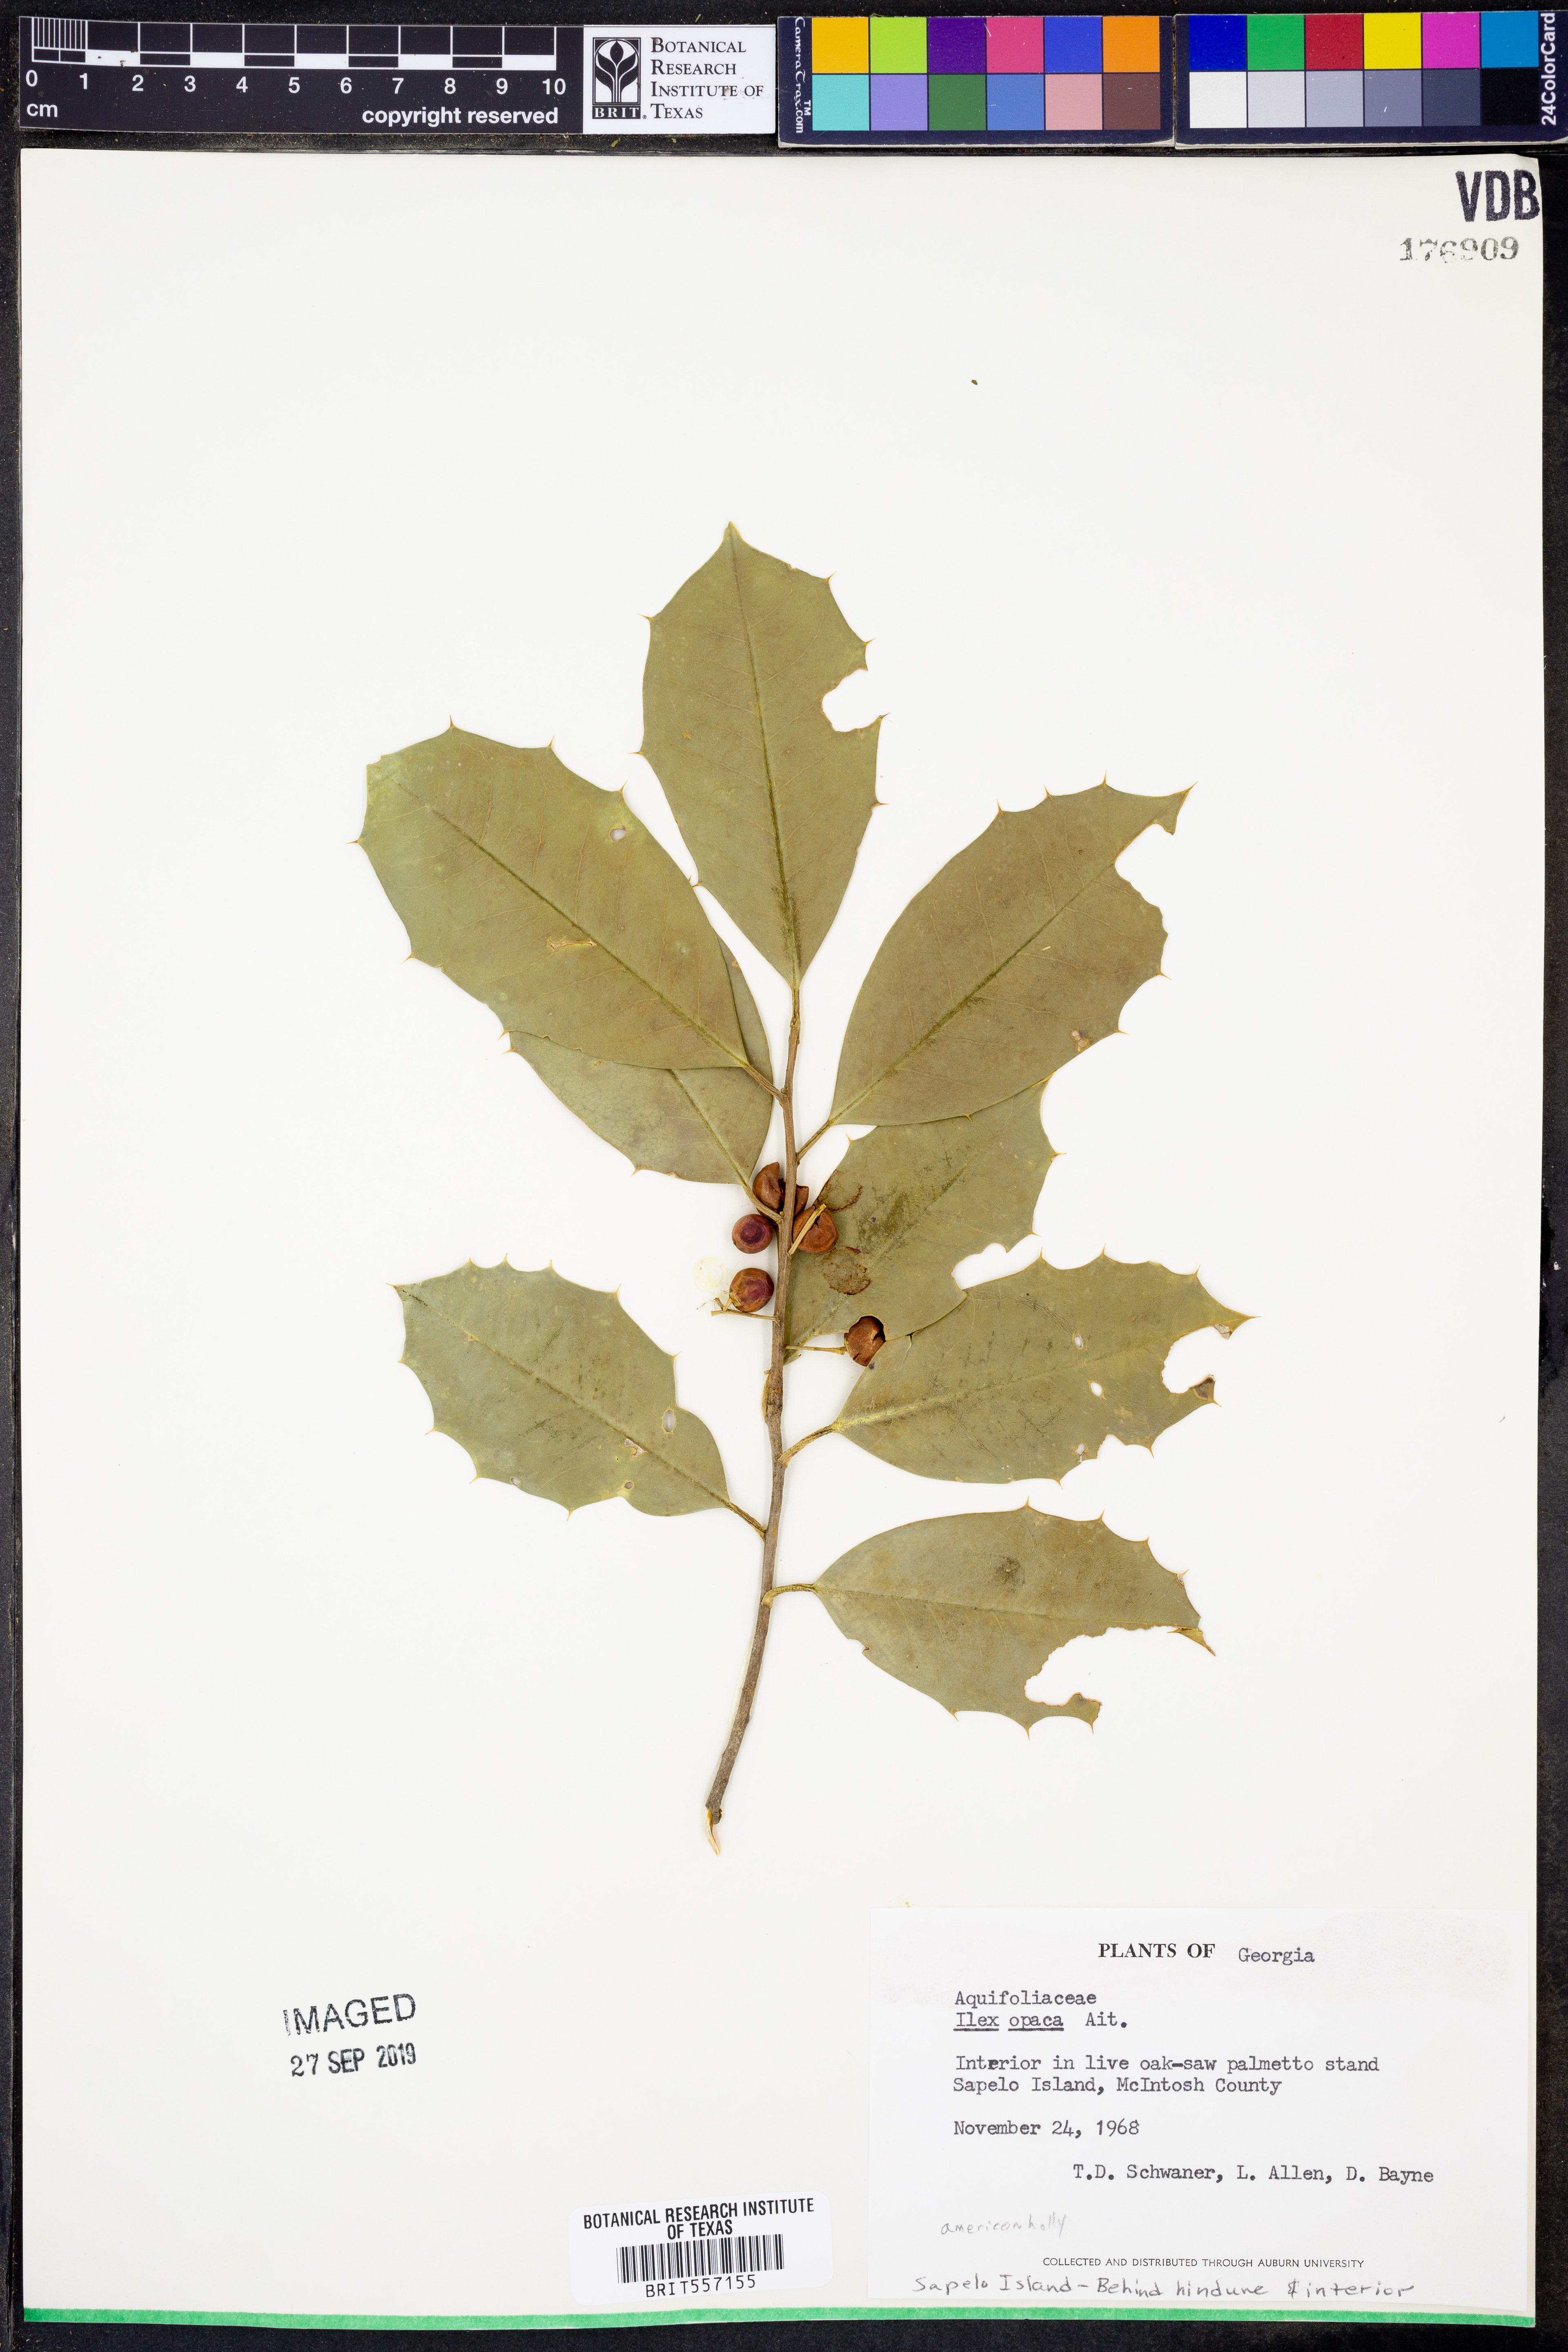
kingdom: Plantae
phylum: Tracheophyta
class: Magnoliopsida
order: Aquifoliales
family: Aquifoliaceae
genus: Ilex
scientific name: Ilex opaca
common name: American holly
